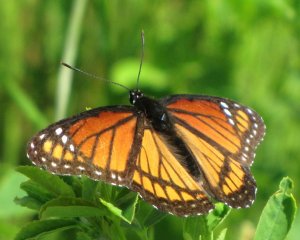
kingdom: Animalia
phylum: Arthropoda
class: Insecta
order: Lepidoptera
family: Nymphalidae
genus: Limenitis
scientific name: Limenitis archippus
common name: Viceroy
